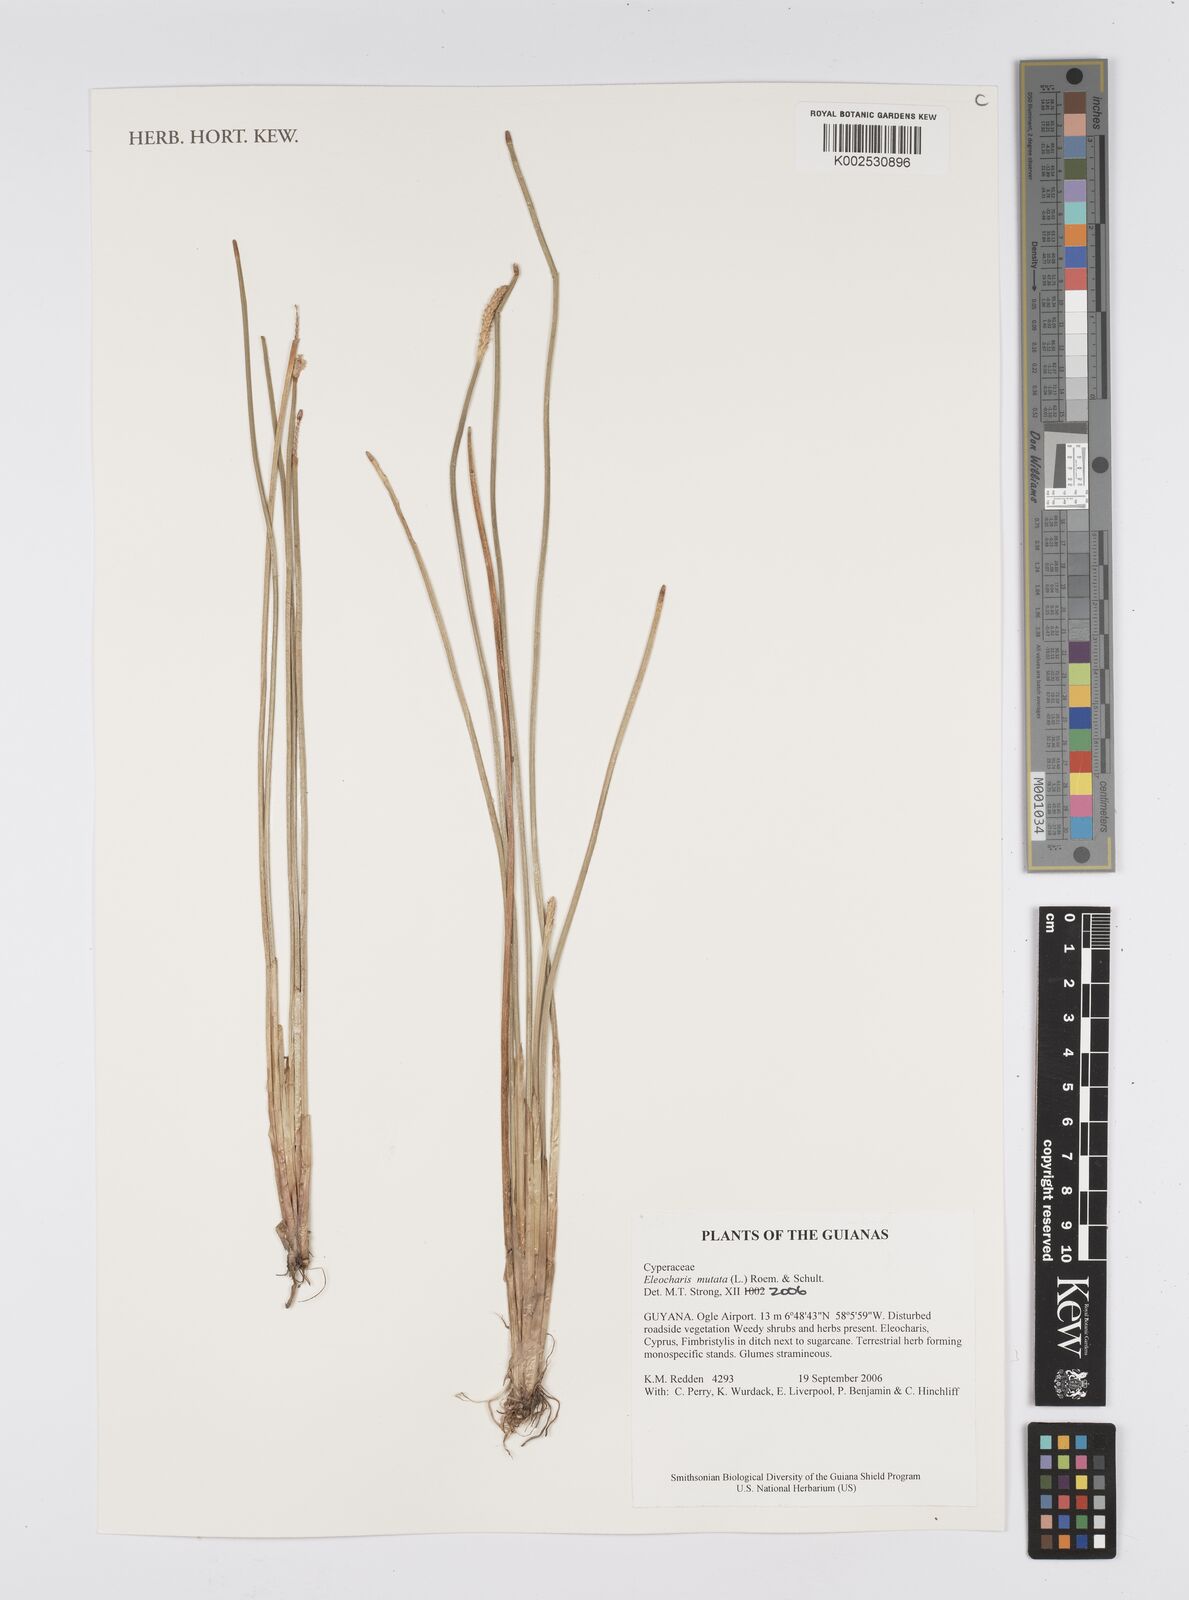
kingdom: Plantae
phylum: Tracheophyta
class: Liliopsida
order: Poales
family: Cyperaceae
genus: Eleocharis
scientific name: Eleocharis mutata
